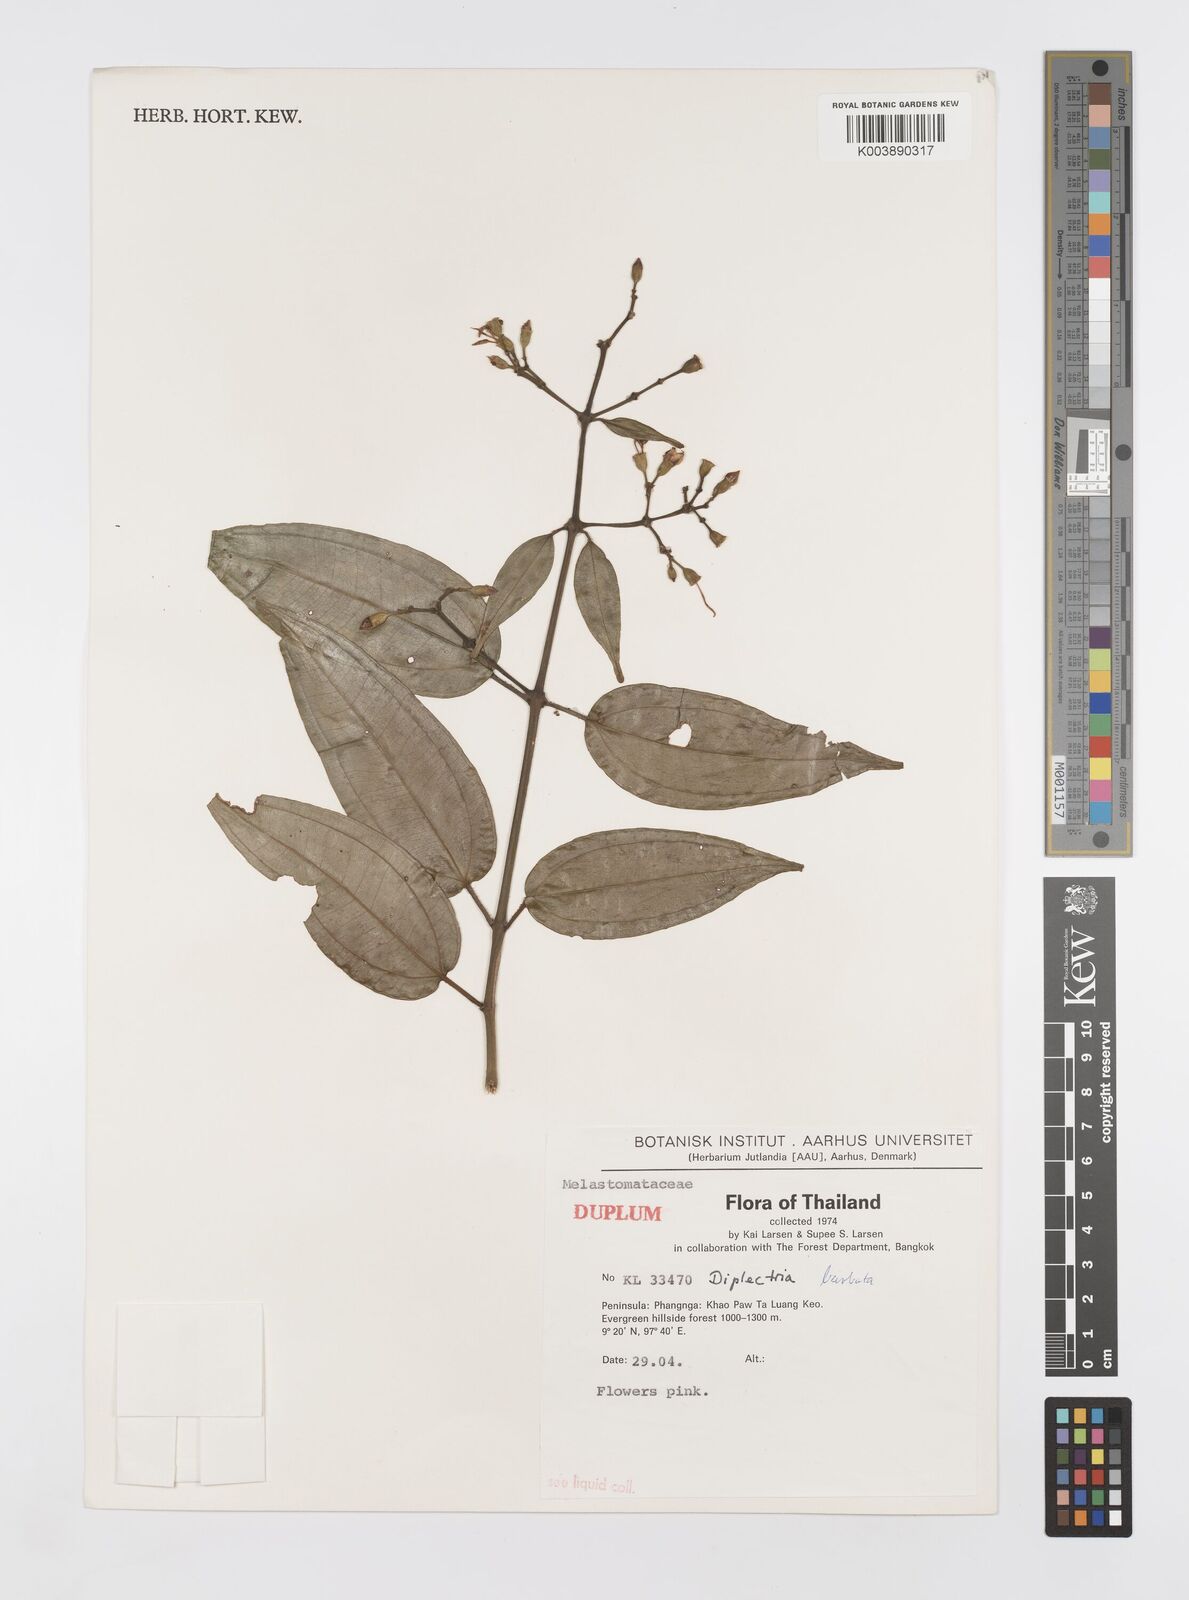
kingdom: Plantae
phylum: Tracheophyta
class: Magnoliopsida
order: Myrtales
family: Melastomataceae
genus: Diplectria
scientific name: Diplectria barbata
